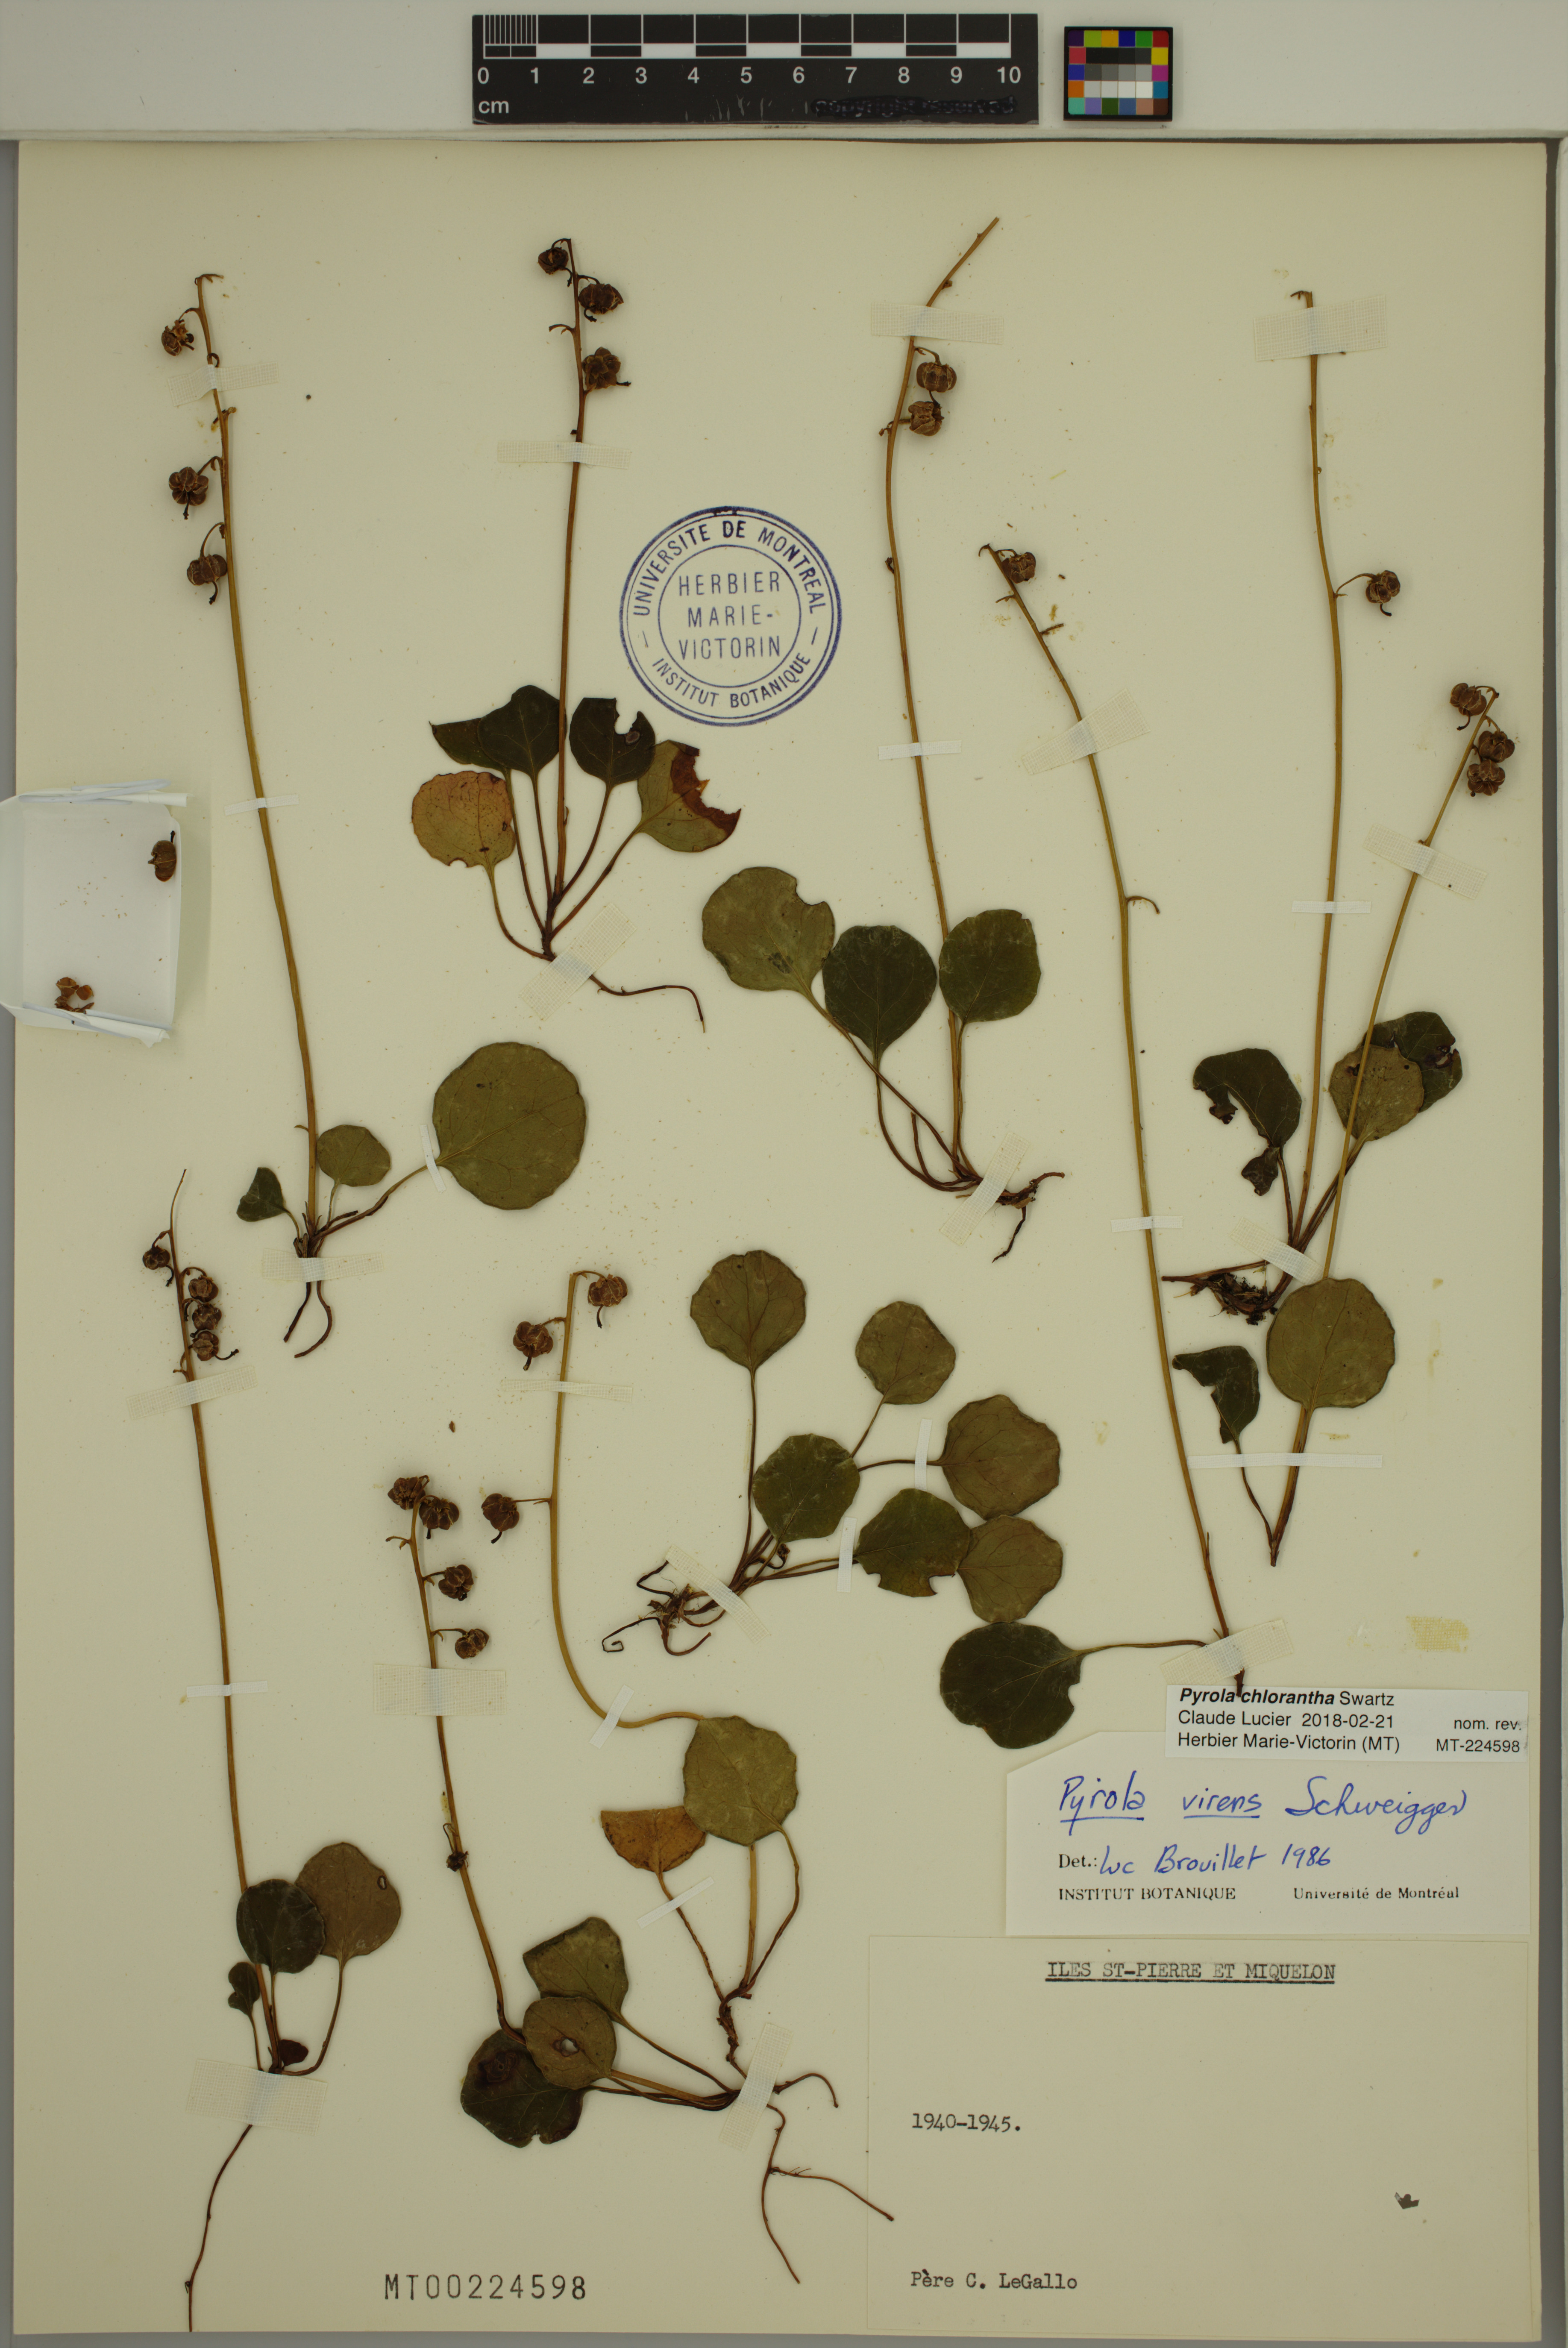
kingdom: Plantae
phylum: Tracheophyta
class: Magnoliopsida
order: Ericales
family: Ericaceae
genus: Pyrola
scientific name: Pyrola chlorantha
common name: Green wintergreen
